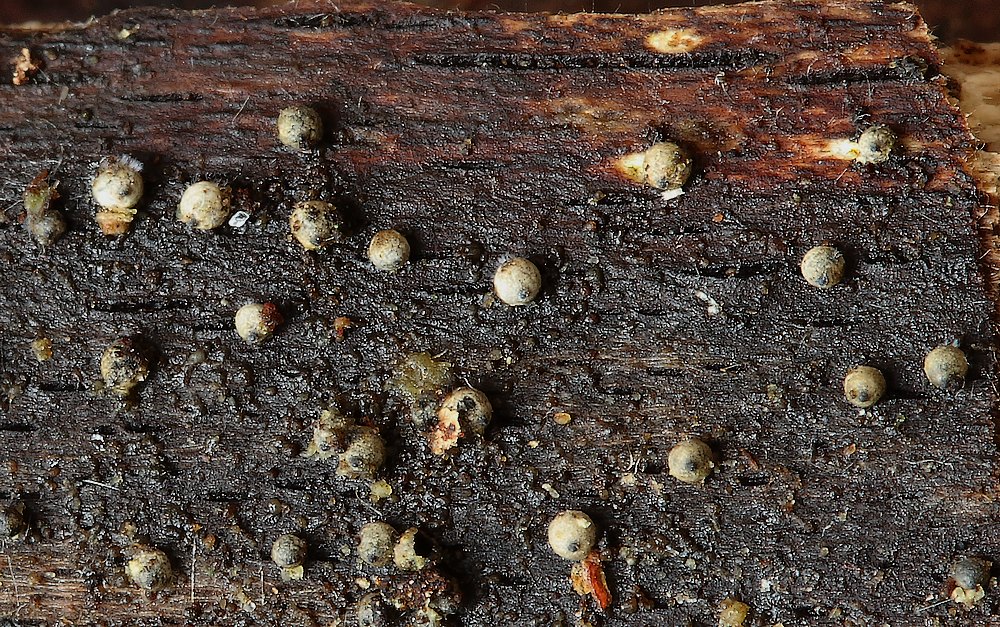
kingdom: Fungi
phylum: Ascomycota
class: Sordariomycetes
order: Sordariales
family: Lasiosphaeriaceae
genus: Lasiosphaeria
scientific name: Lasiosphaeria ovina
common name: fåre-kernesvamp
